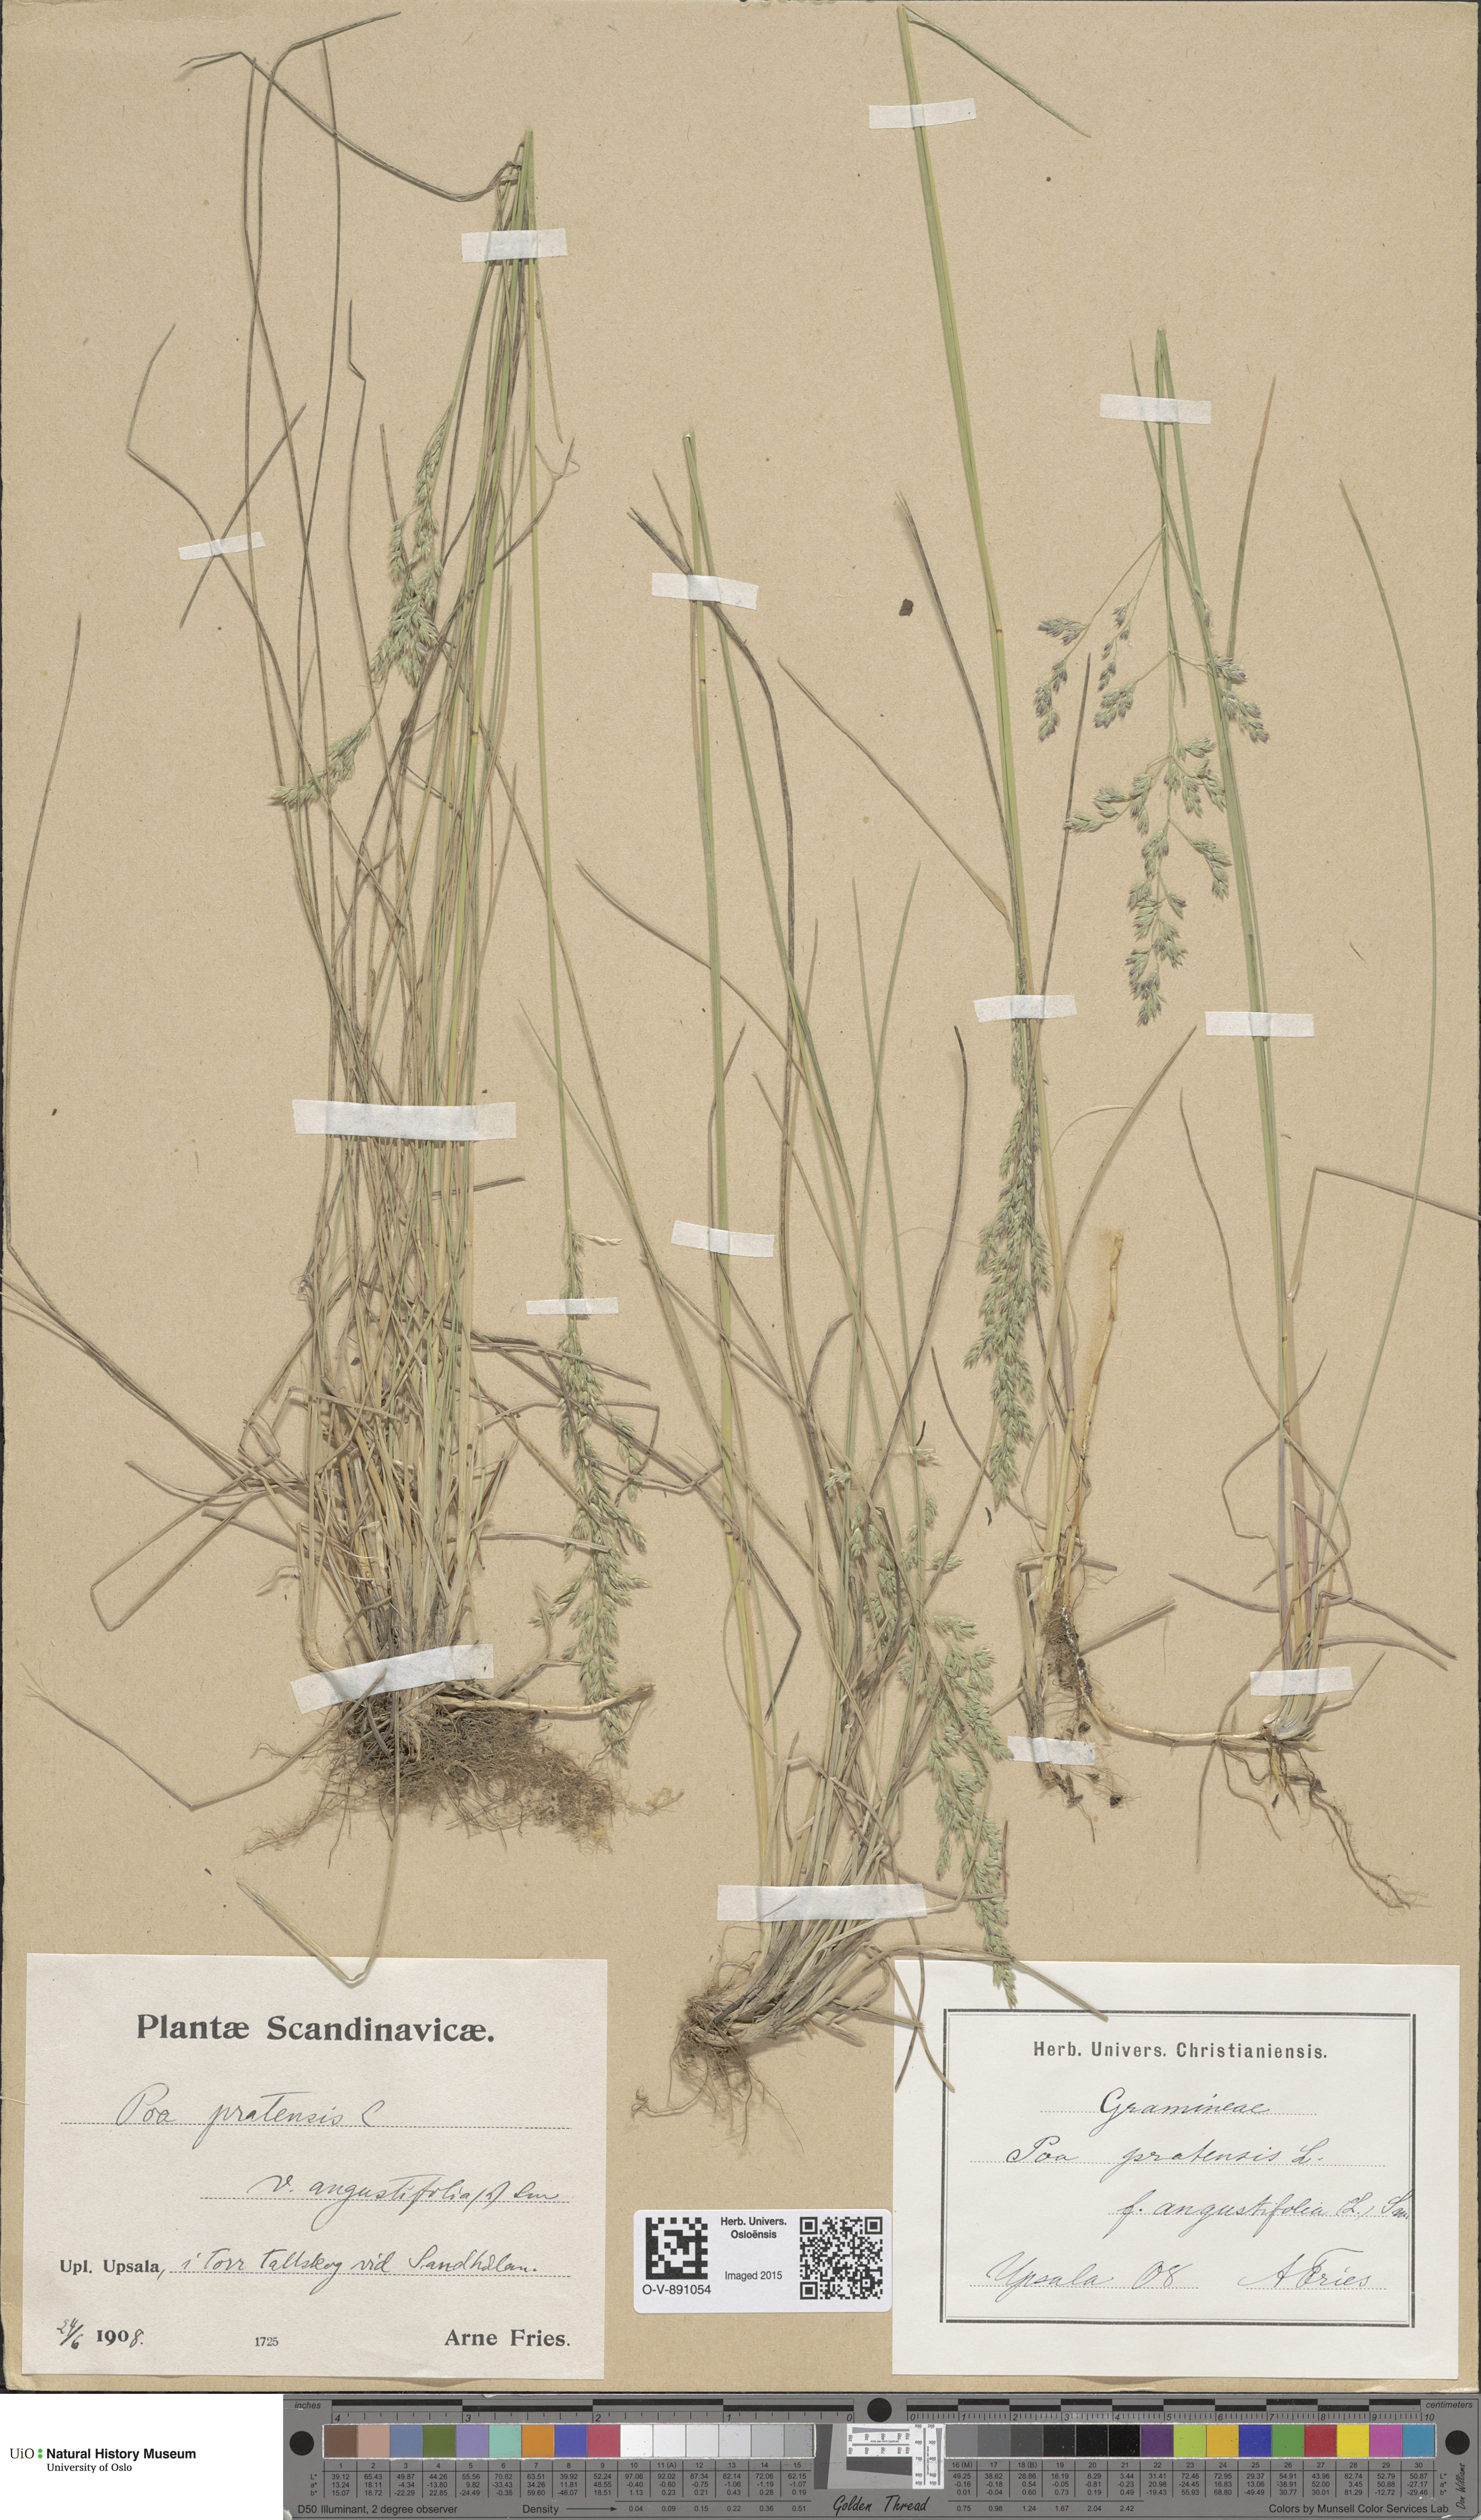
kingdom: Plantae
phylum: Tracheophyta
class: Liliopsida
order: Poales
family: Poaceae
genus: Poa
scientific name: Poa angustifolia
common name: Narrow-leaved meadow-grass
